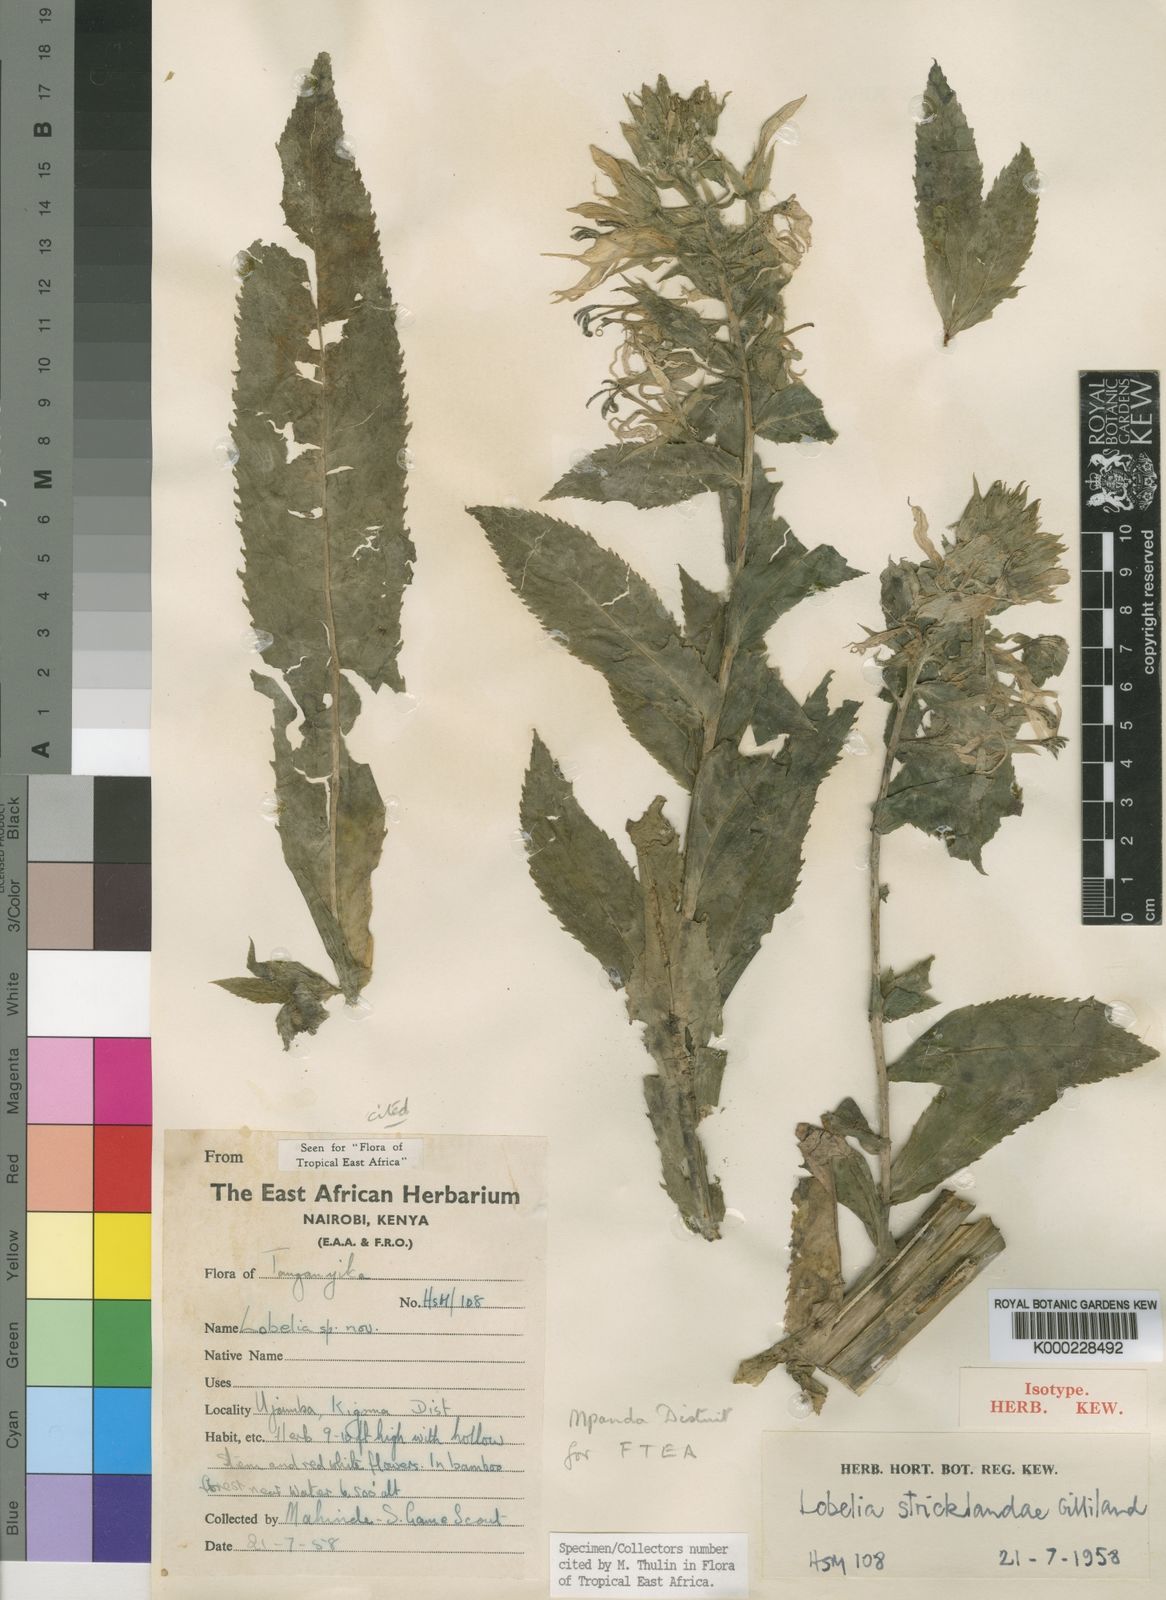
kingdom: Plantae
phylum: Tracheophyta
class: Magnoliopsida
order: Asterales
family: Campanulaceae
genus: Lobelia
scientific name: Lobelia stricklandiae
